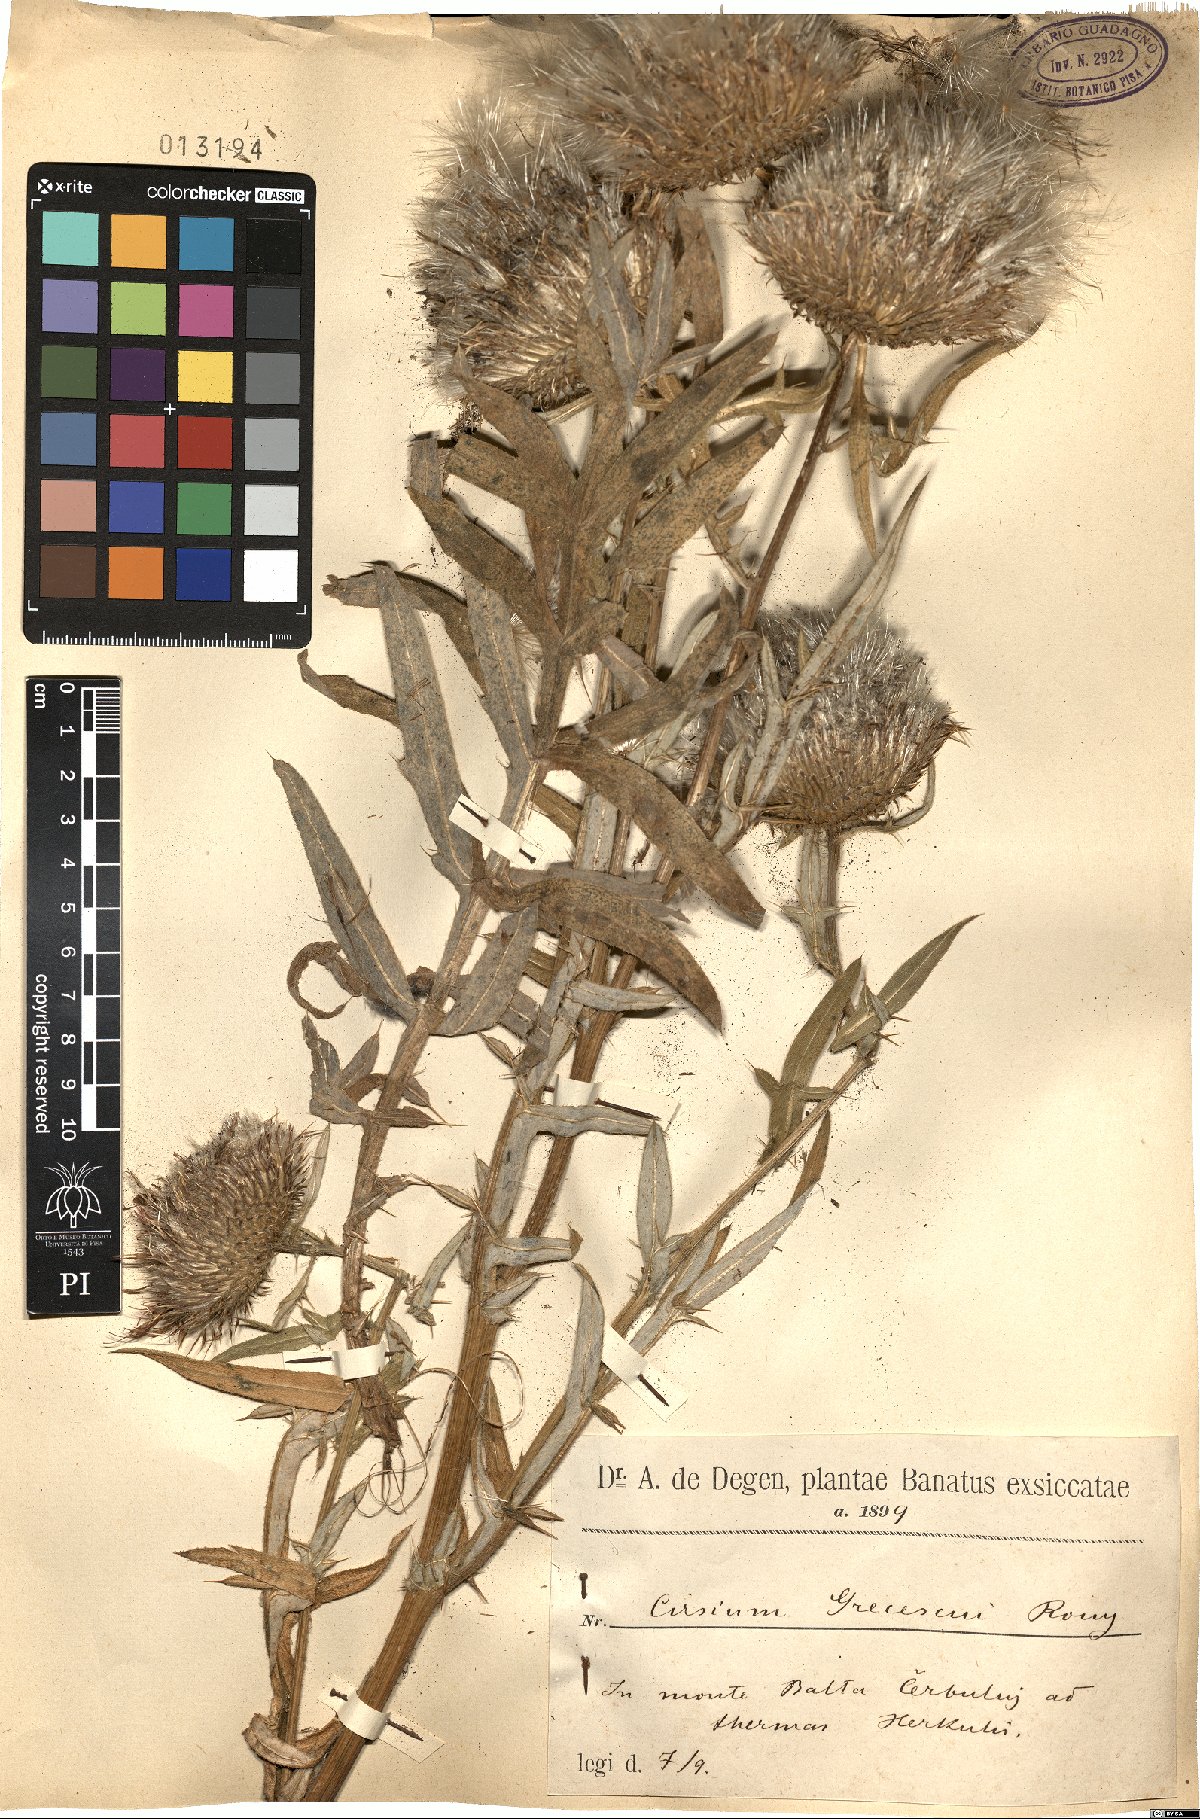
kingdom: Plantae
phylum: Tracheophyta
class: Magnoliopsida
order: Asterales
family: Asteraceae
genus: Lophiolepis
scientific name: Lophiolepis grecescui
